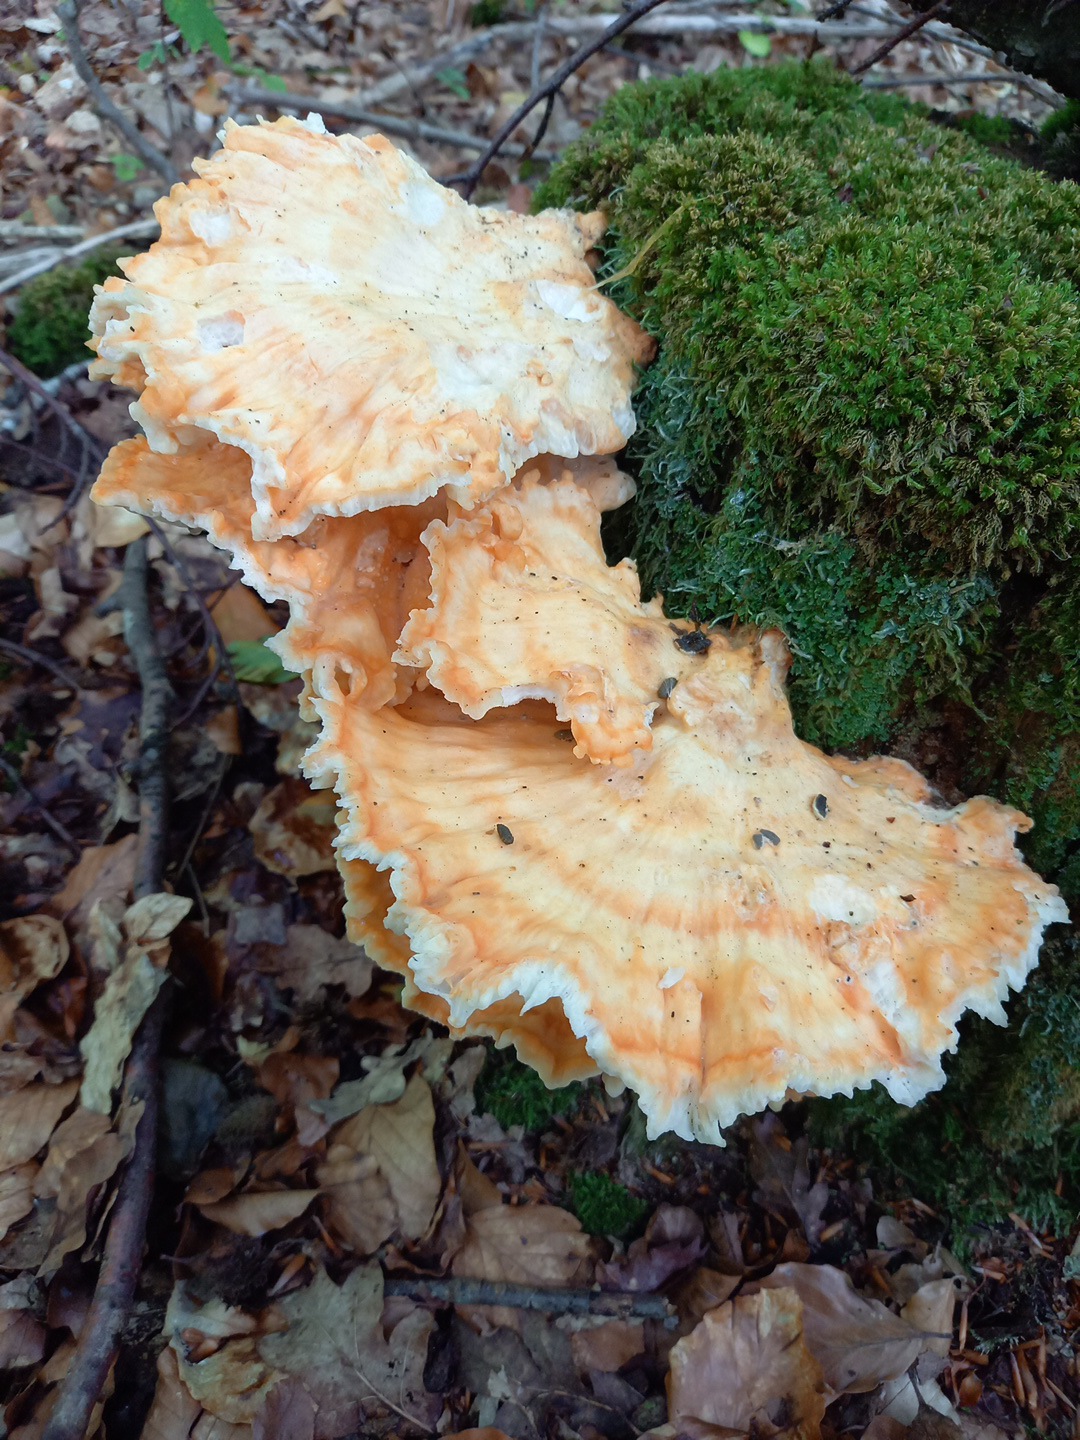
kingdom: Fungi
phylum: Basidiomycota
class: Agaricomycetes
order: Polyporales
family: Laetiporaceae
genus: Laetiporus
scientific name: Laetiporus sulphureus
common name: svovlporesvamp
